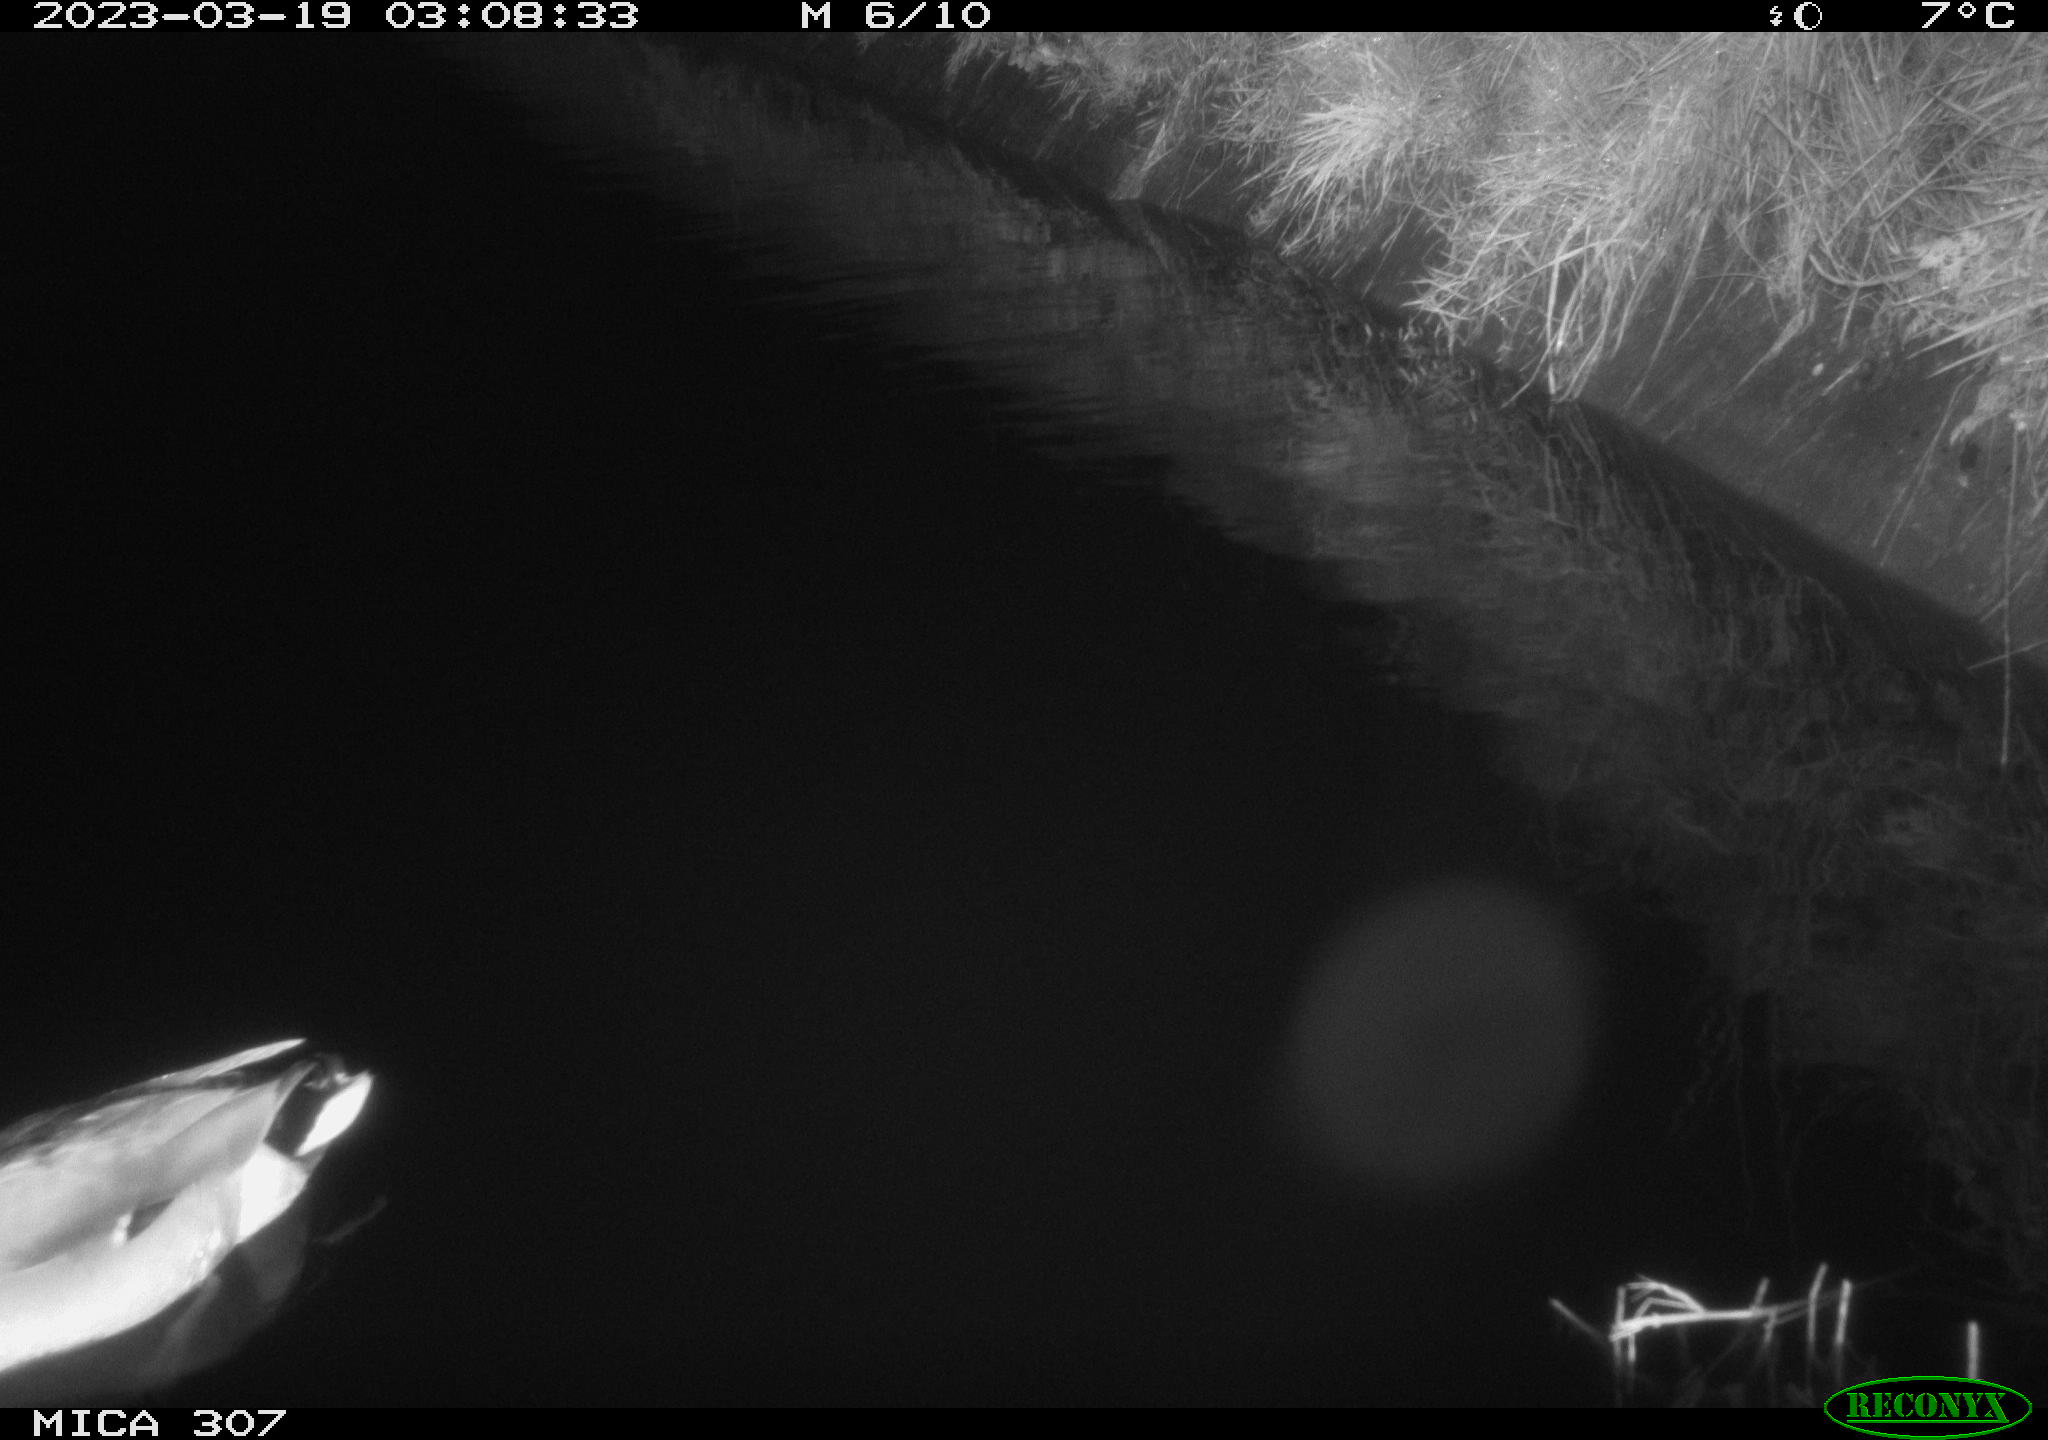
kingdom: Animalia
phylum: Chordata
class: Mammalia
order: Rodentia
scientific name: Rodentia
